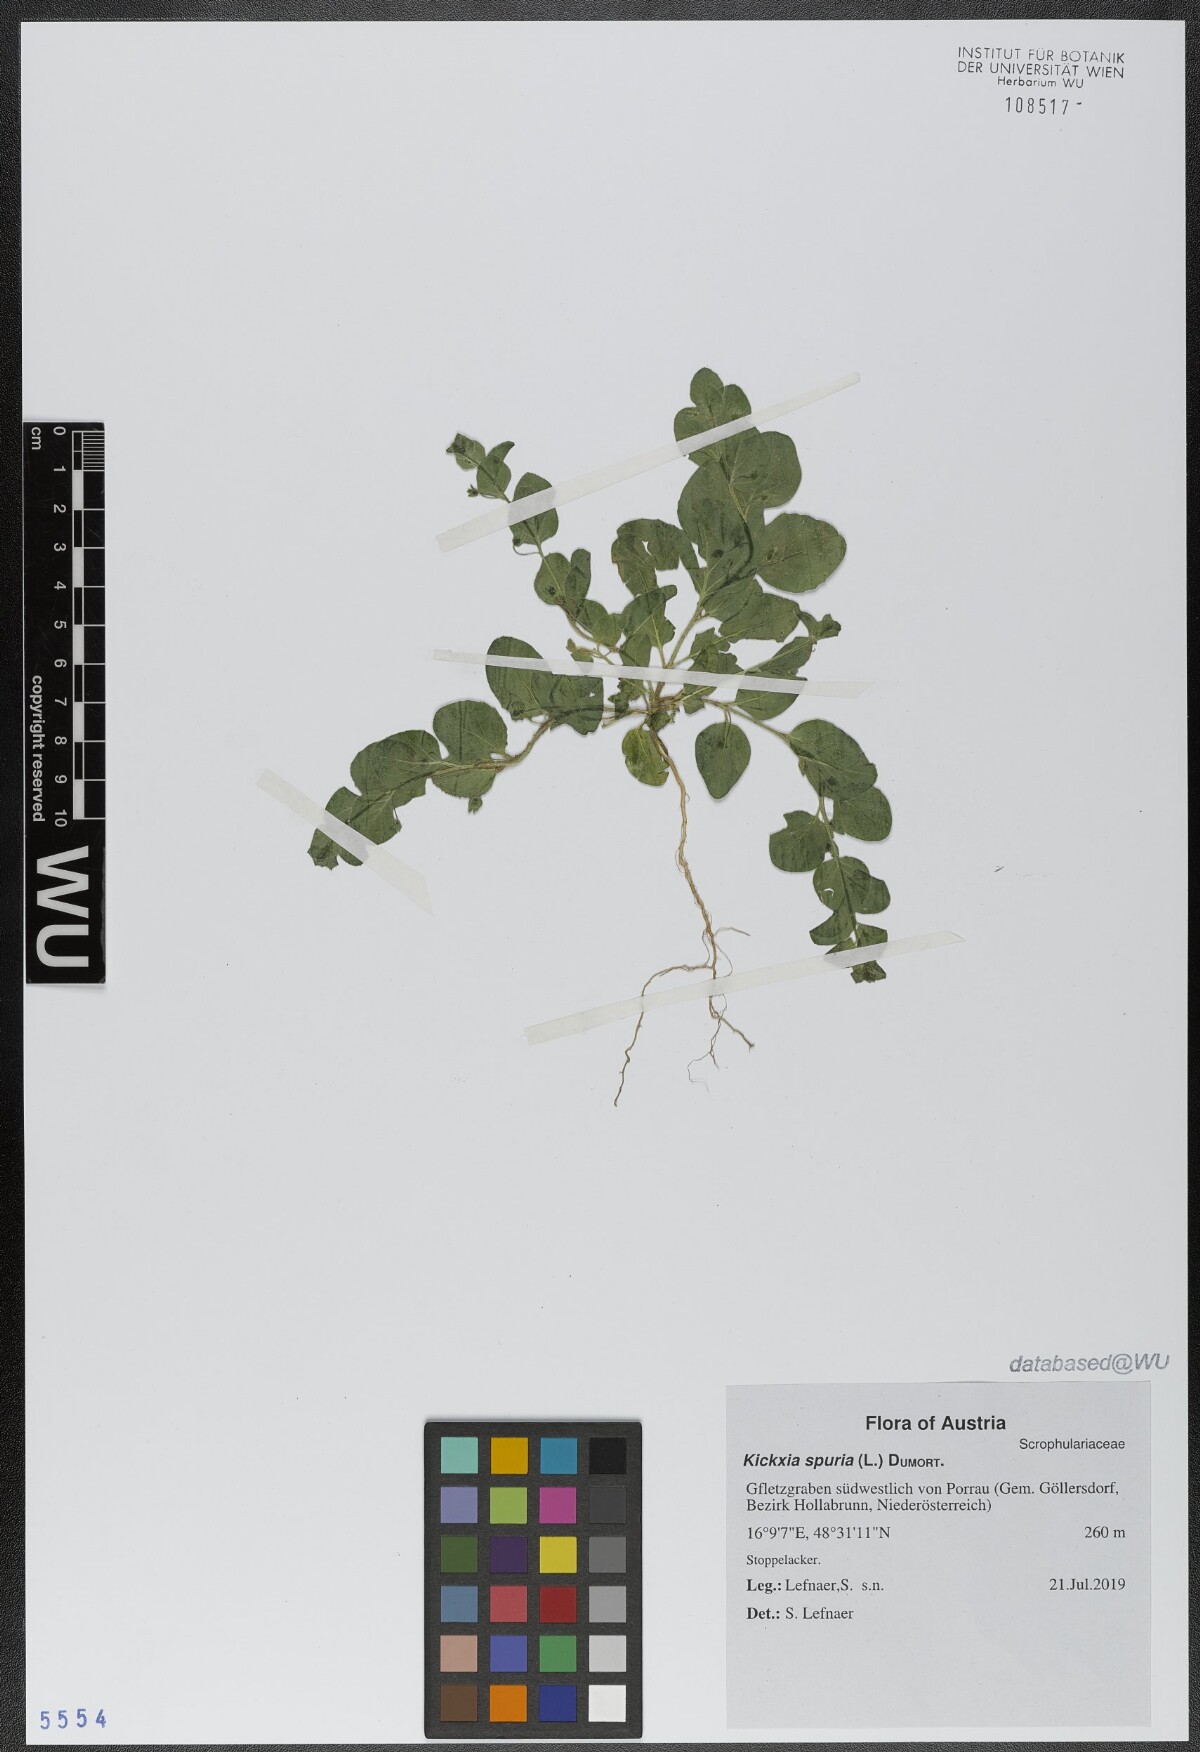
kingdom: Plantae
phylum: Tracheophyta
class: Magnoliopsida
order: Lamiales
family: Plantaginaceae
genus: Kickxia
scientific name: Kickxia spuria
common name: Round-leaved fluellen
